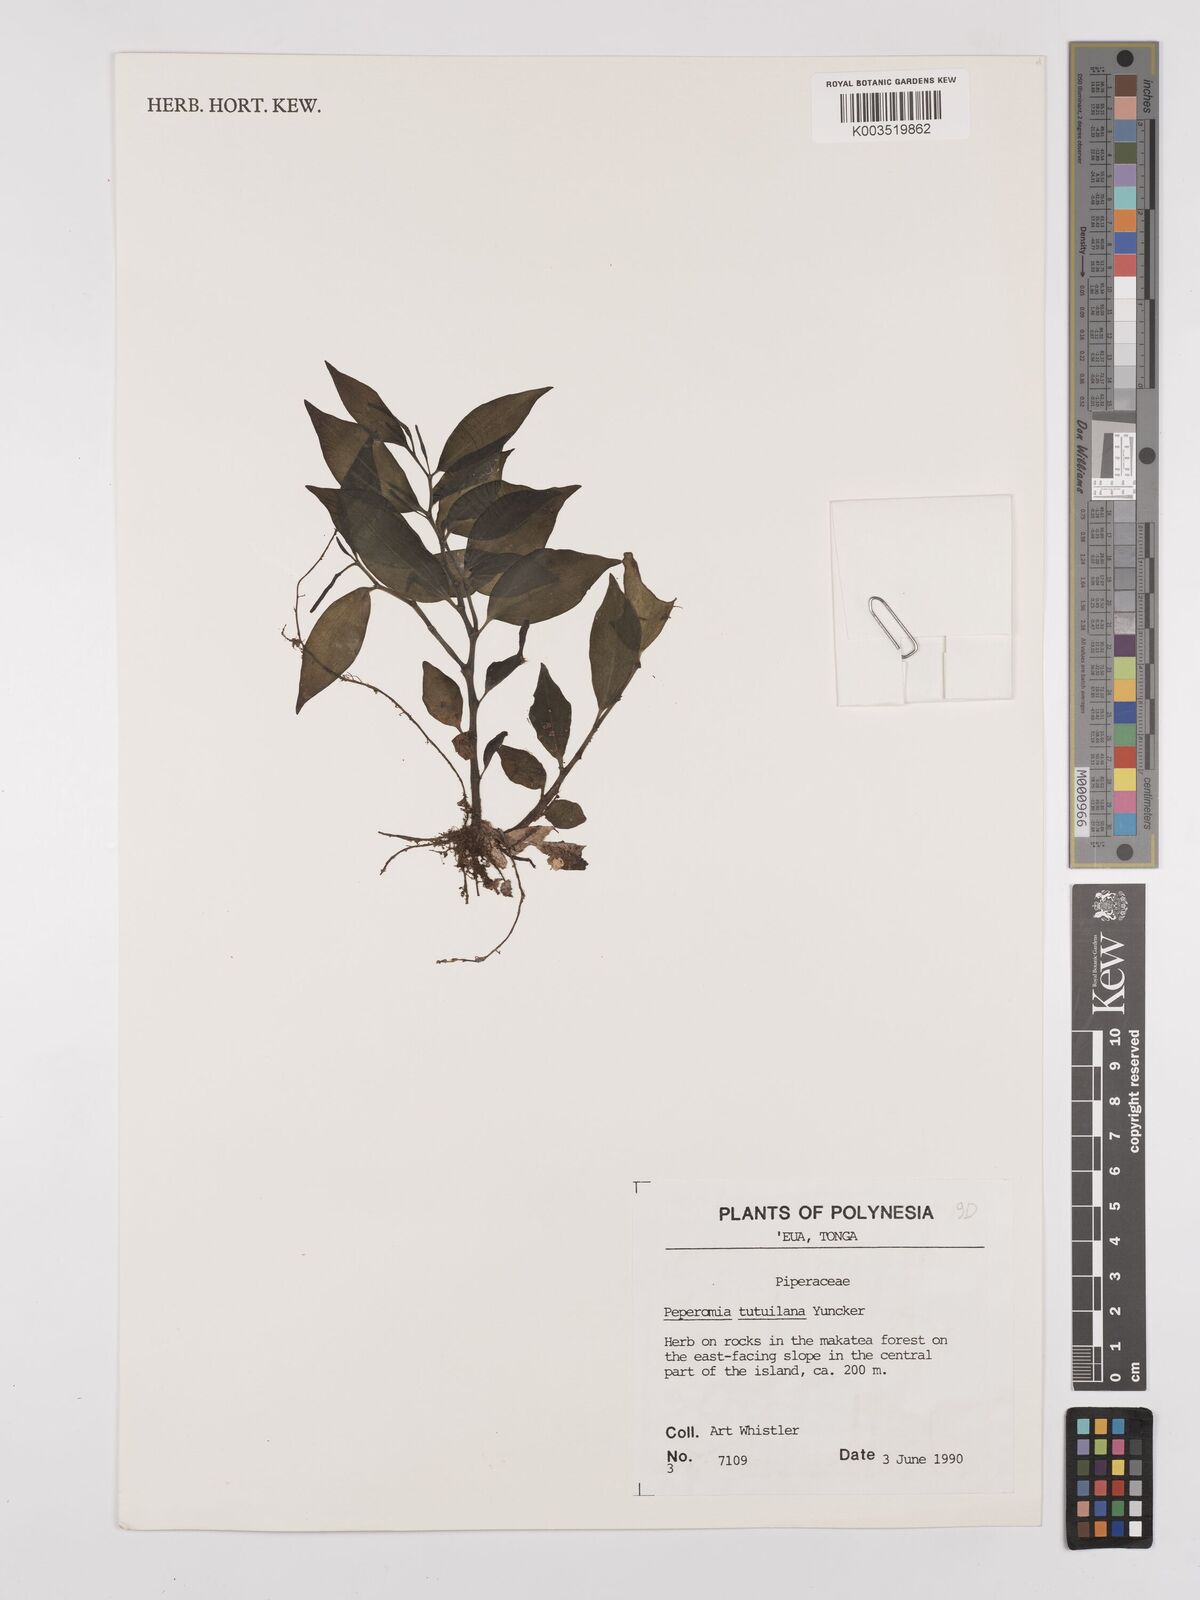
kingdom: Plantae
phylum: Tracheophyta
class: Magnoliopsida
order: Piperales
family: Piperaceae
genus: Peperomia
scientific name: Peperomia tutuilana
